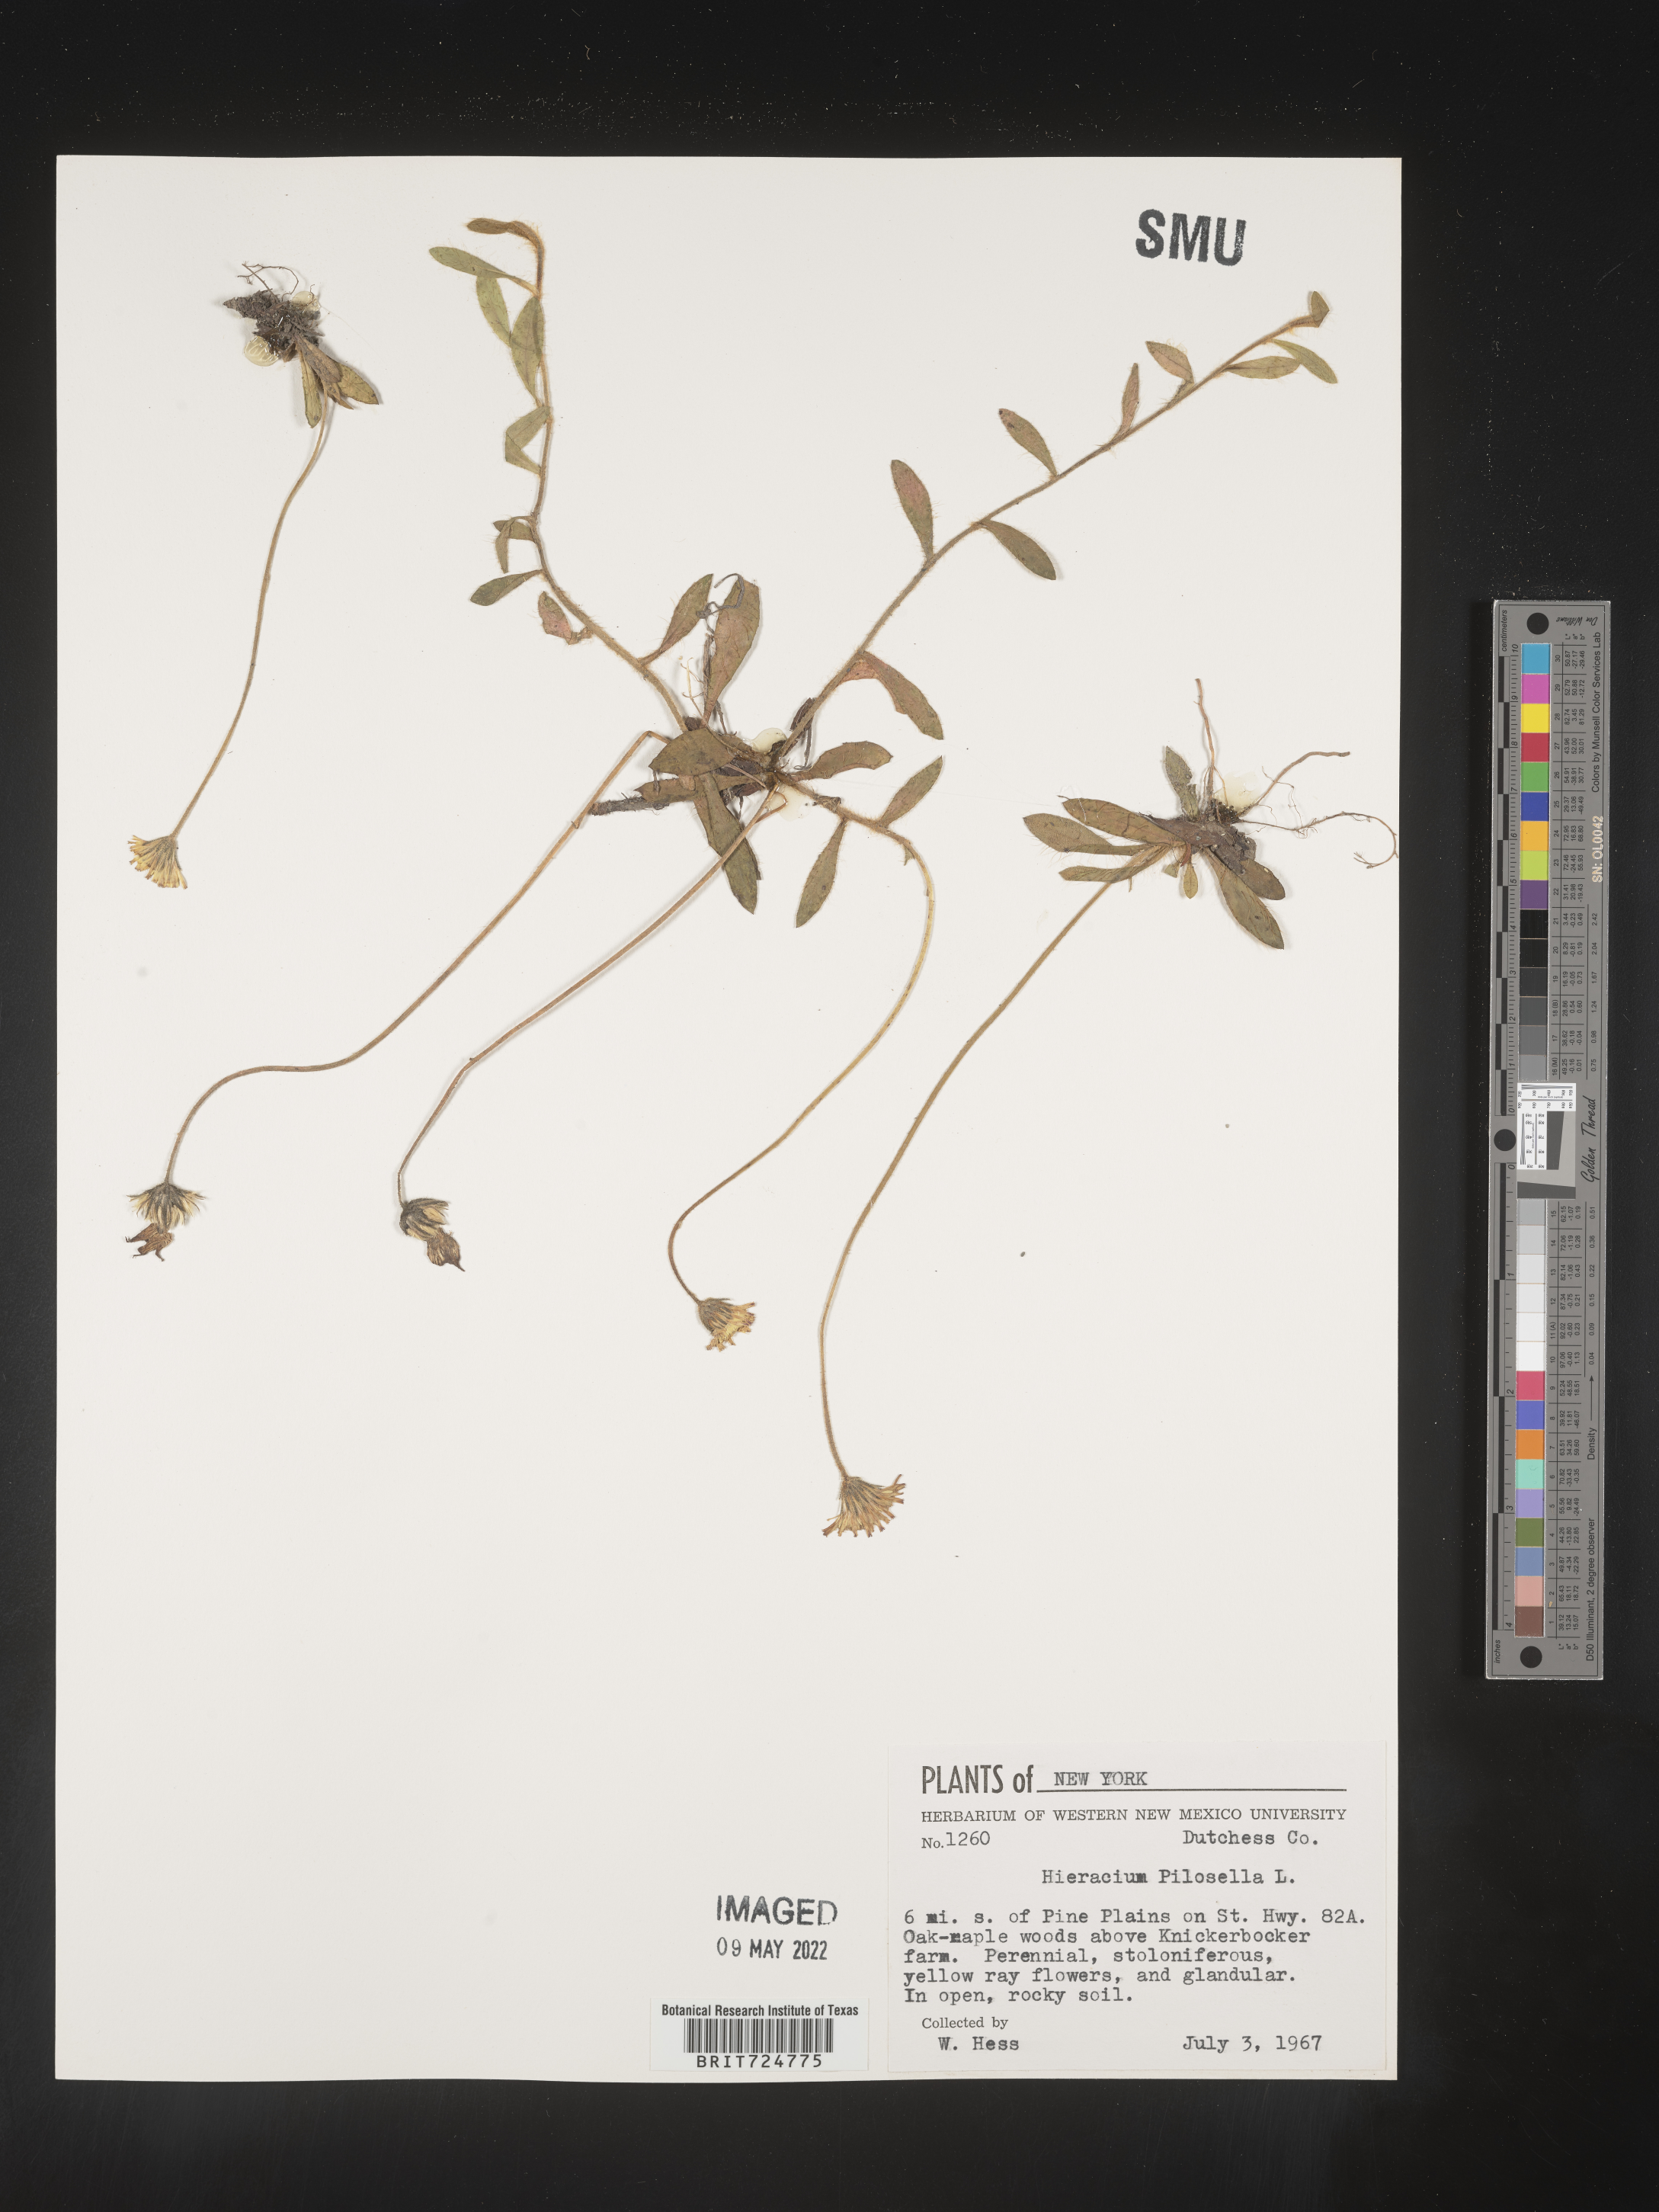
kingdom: Plantae
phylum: Tracheophyta
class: Magnoliopsida
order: Asterales
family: Asteraceae
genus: Hieracium
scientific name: Hieracium
